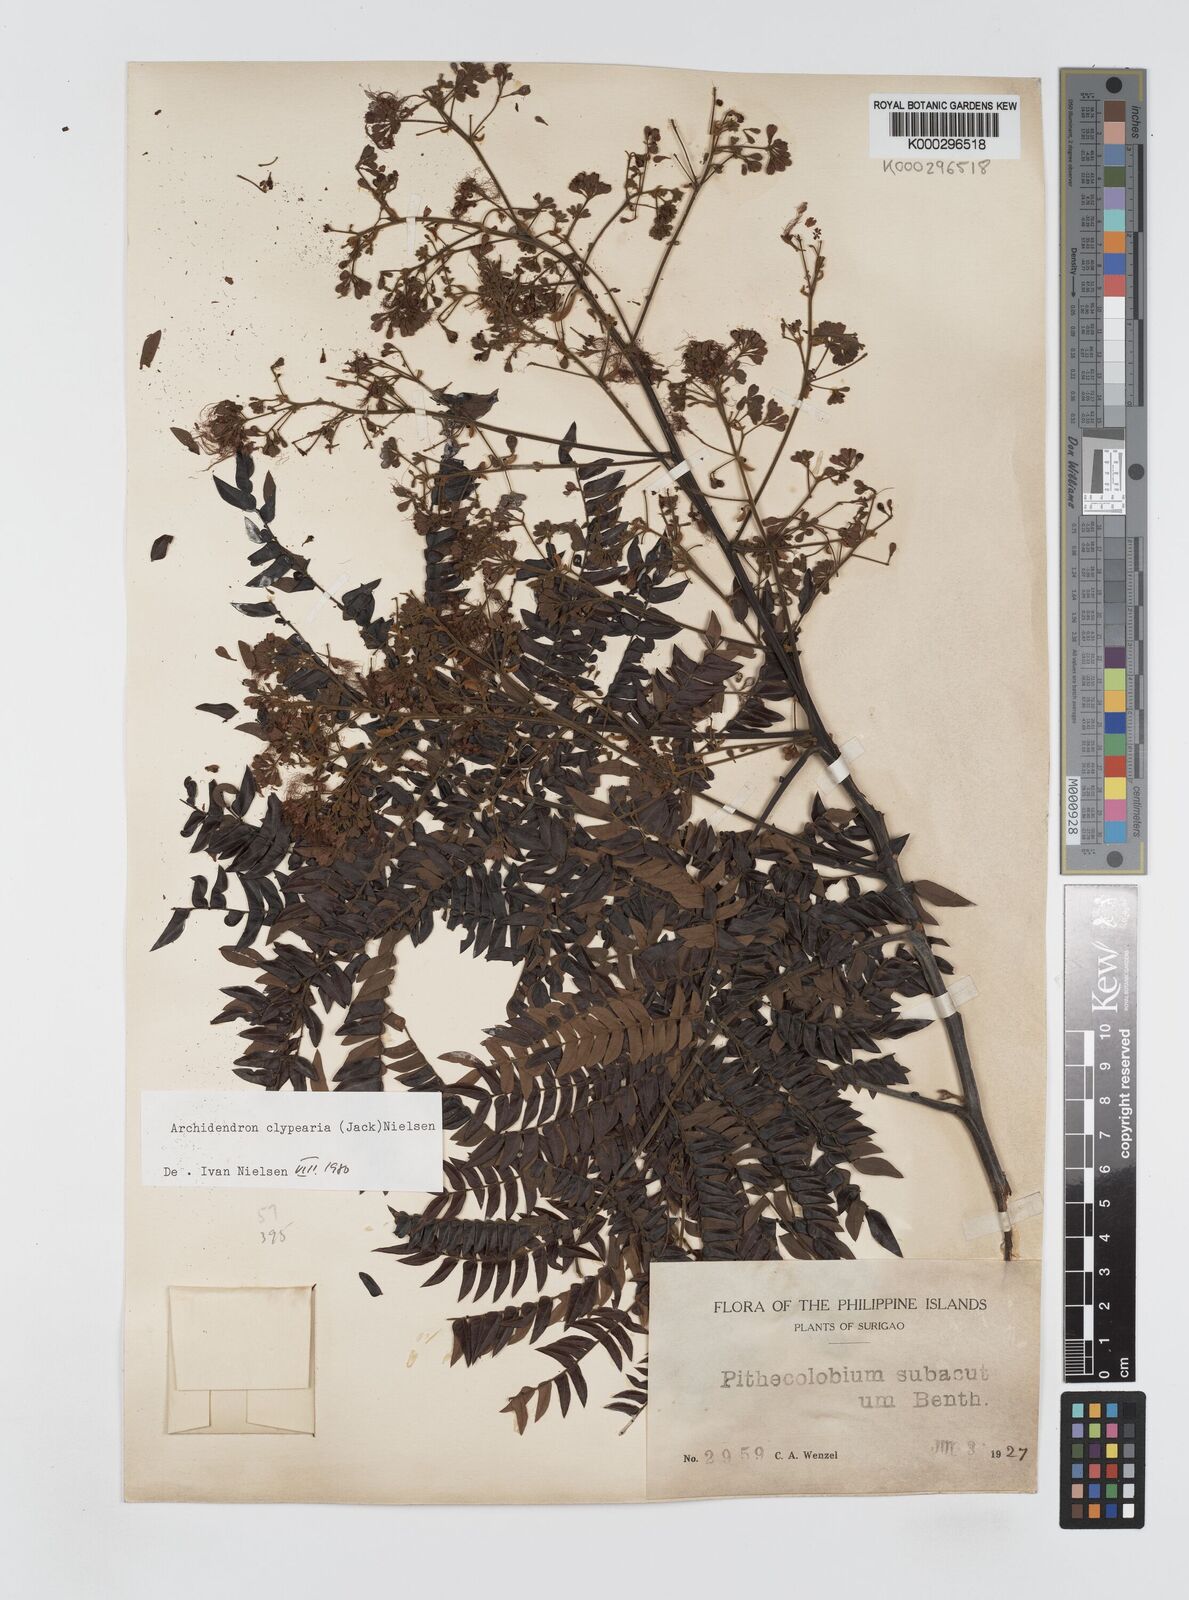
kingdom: Plantae
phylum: Tracheophyta
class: Magnoliopsida
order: Fabales
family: Fabaceae
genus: Archidendron
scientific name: Archidendron clypearia
